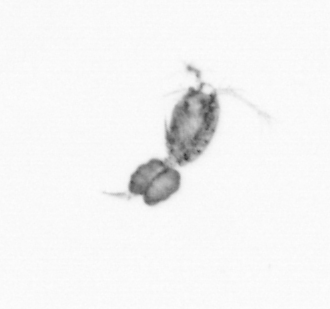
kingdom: Animalia
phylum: Arthropoda
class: Copepoda
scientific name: Copepoda
